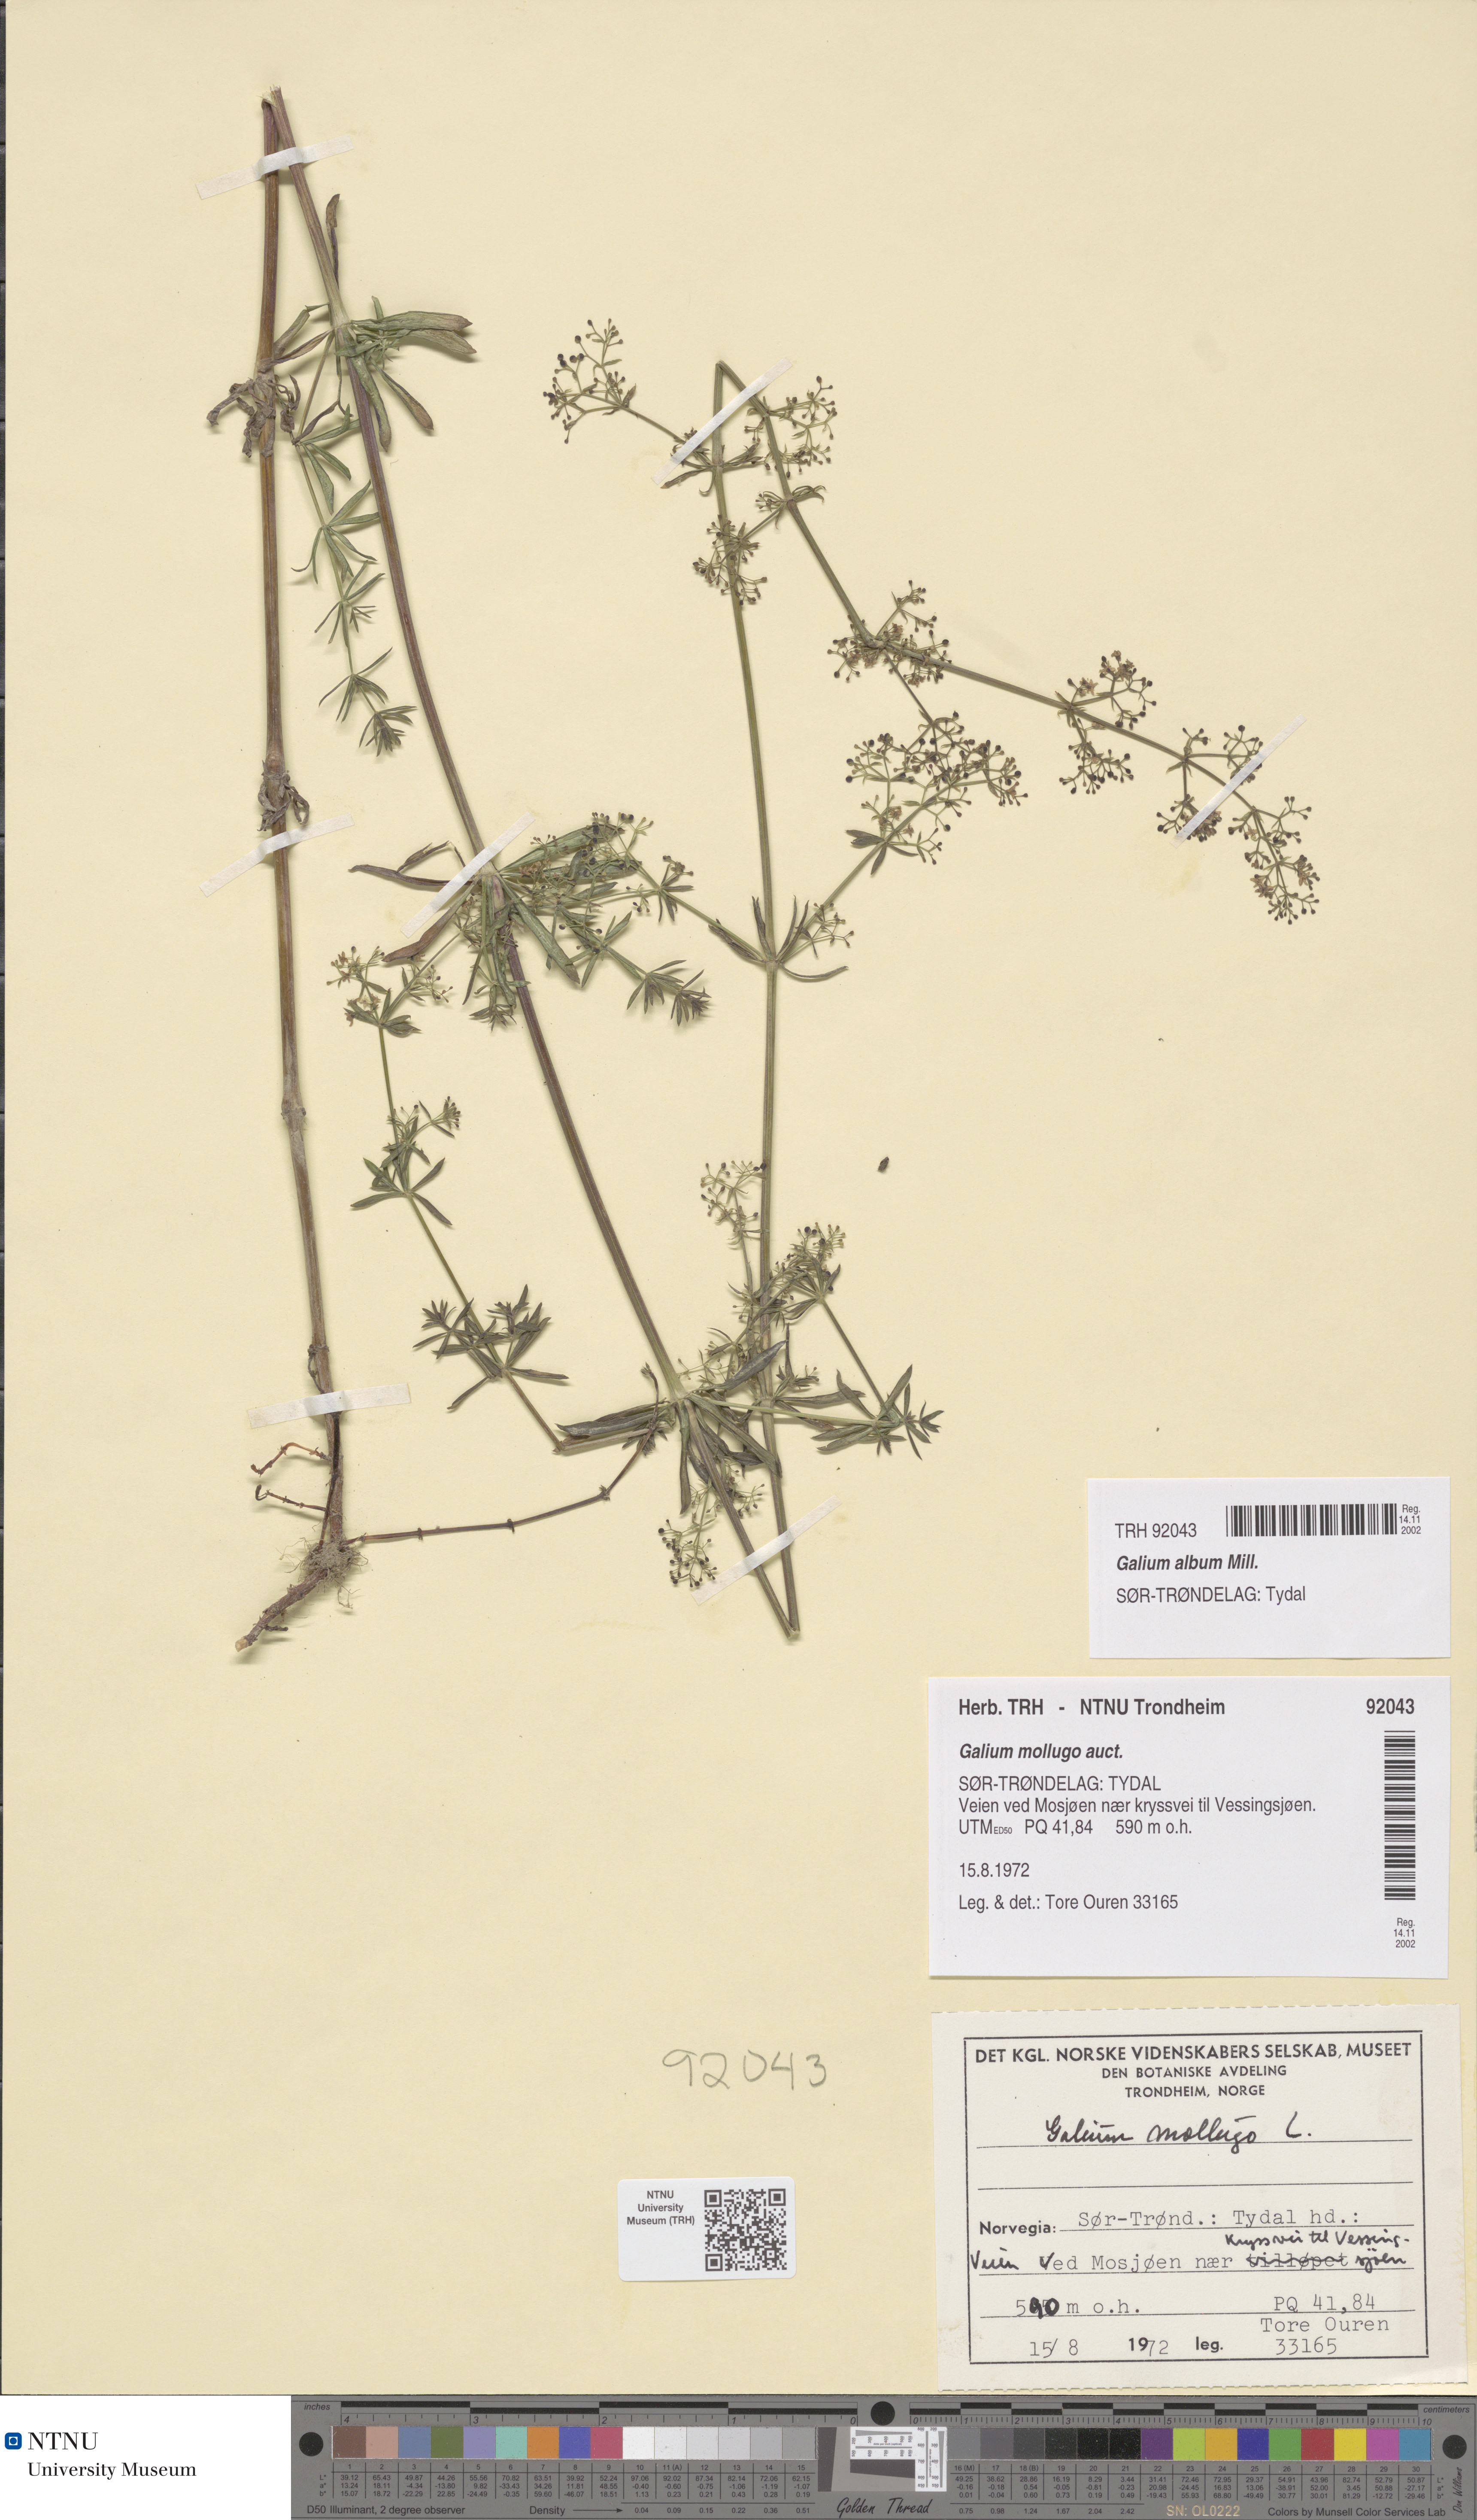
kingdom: Plantae
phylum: Tracheophyta
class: Magnoliopsida
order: Gentianales
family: Rubiaceae
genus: Galium
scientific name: Galium album
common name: White bedstraw
